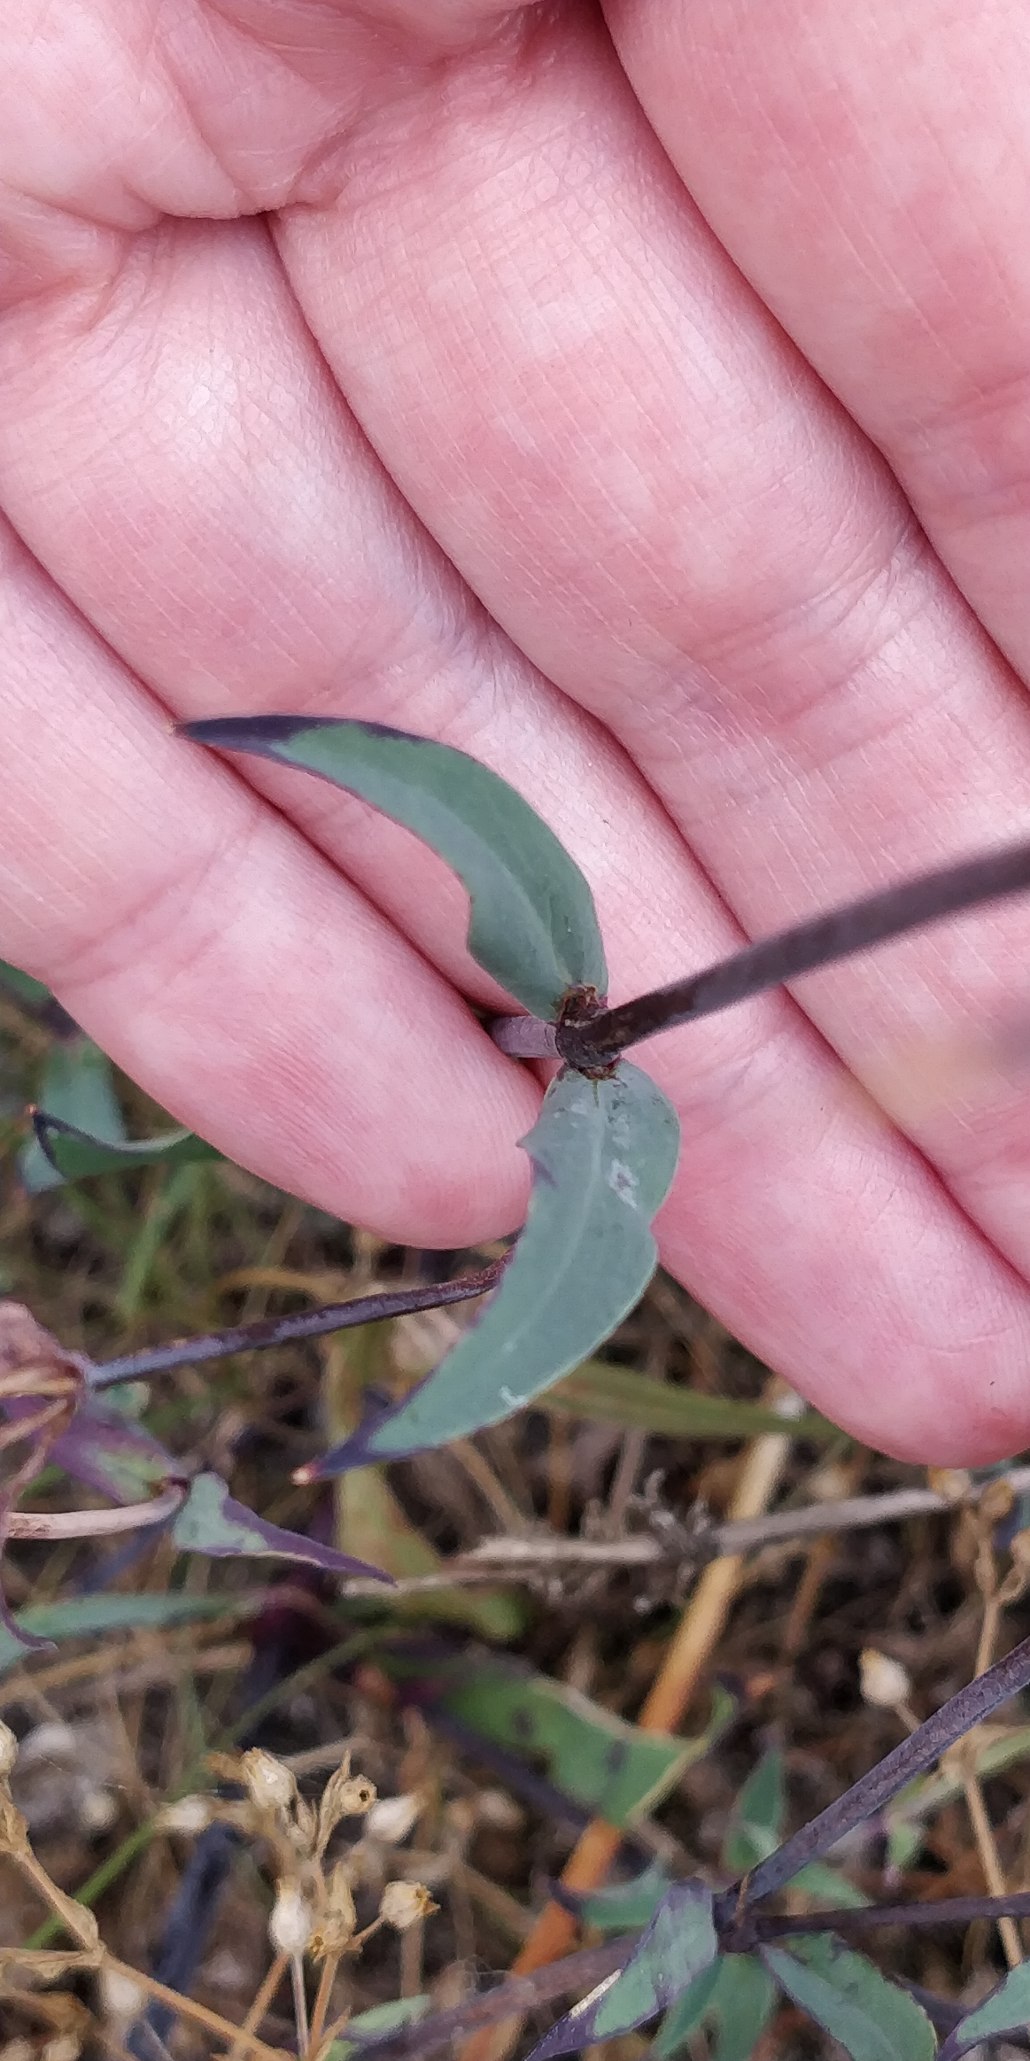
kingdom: Plantae
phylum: Tracheophyta
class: Magnoliopsida
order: Caryophyllales
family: Caryophyllaceae
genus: Silene
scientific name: Silene vulgaris
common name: Blæresmælde
